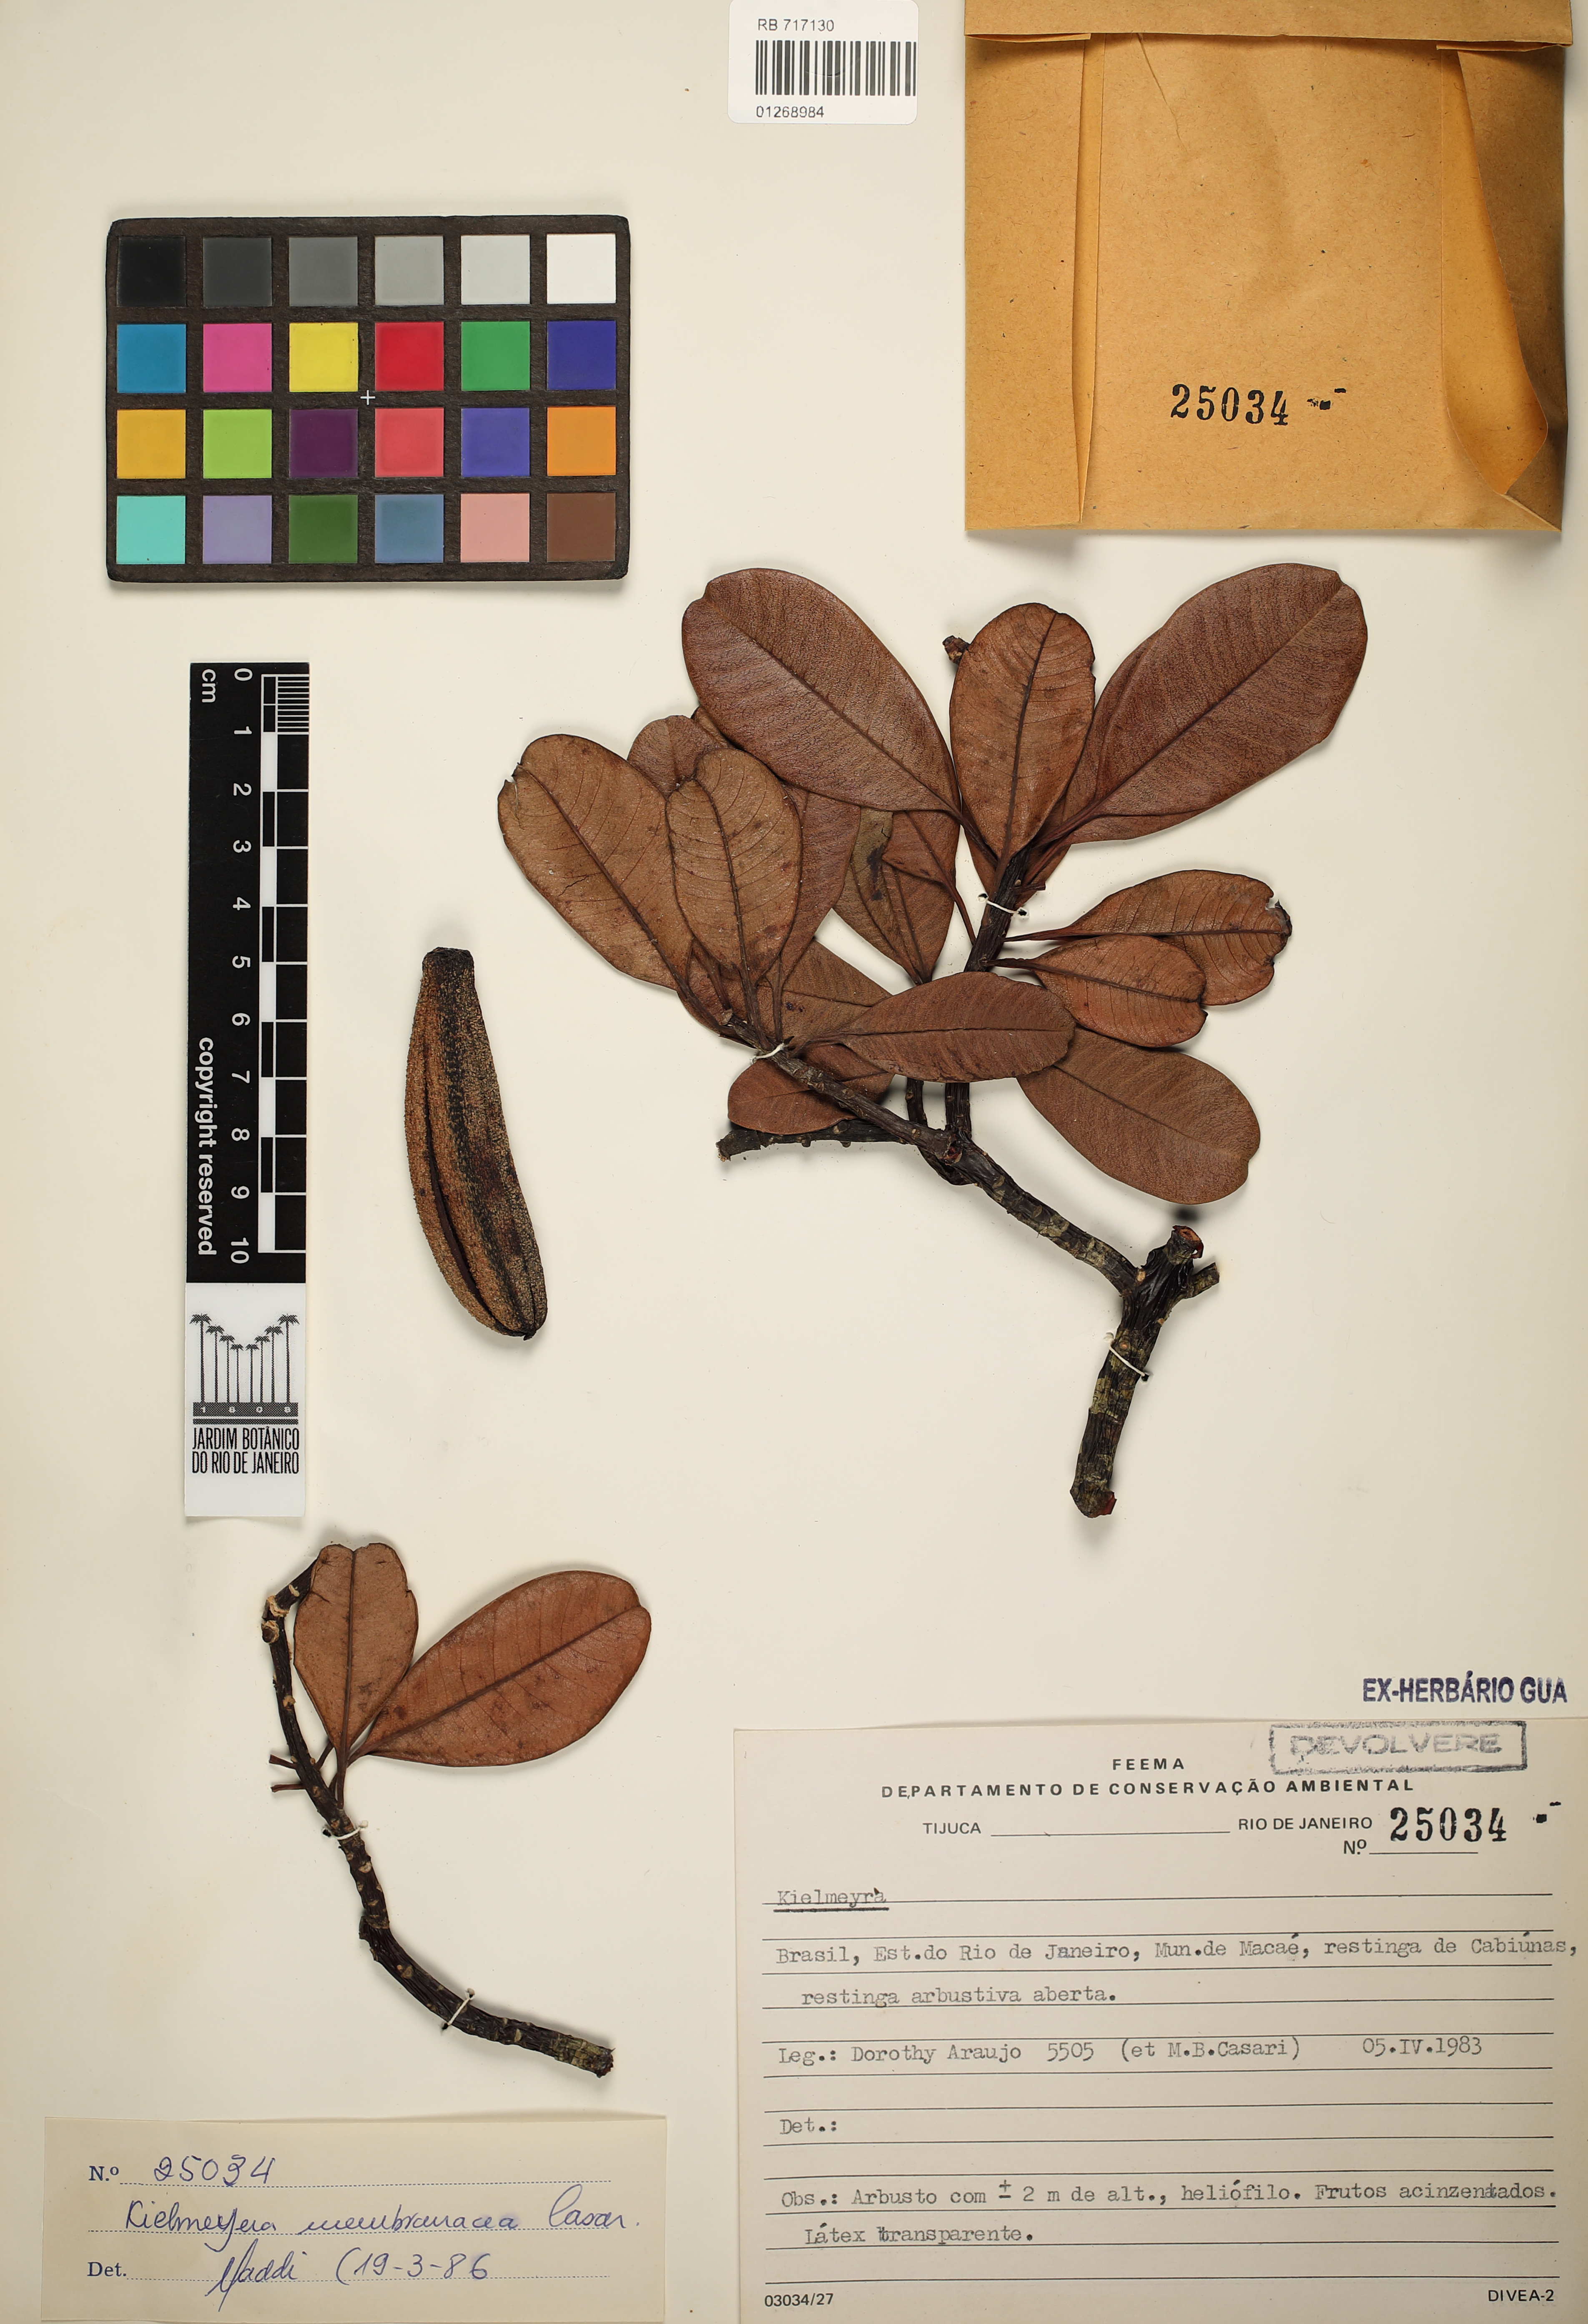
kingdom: Plantae
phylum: Tracheophyta
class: Magnoliopsida
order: Malpighiales
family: Calophyllaceae
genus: Kielmeyera
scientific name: Kielmeyera membranacea
